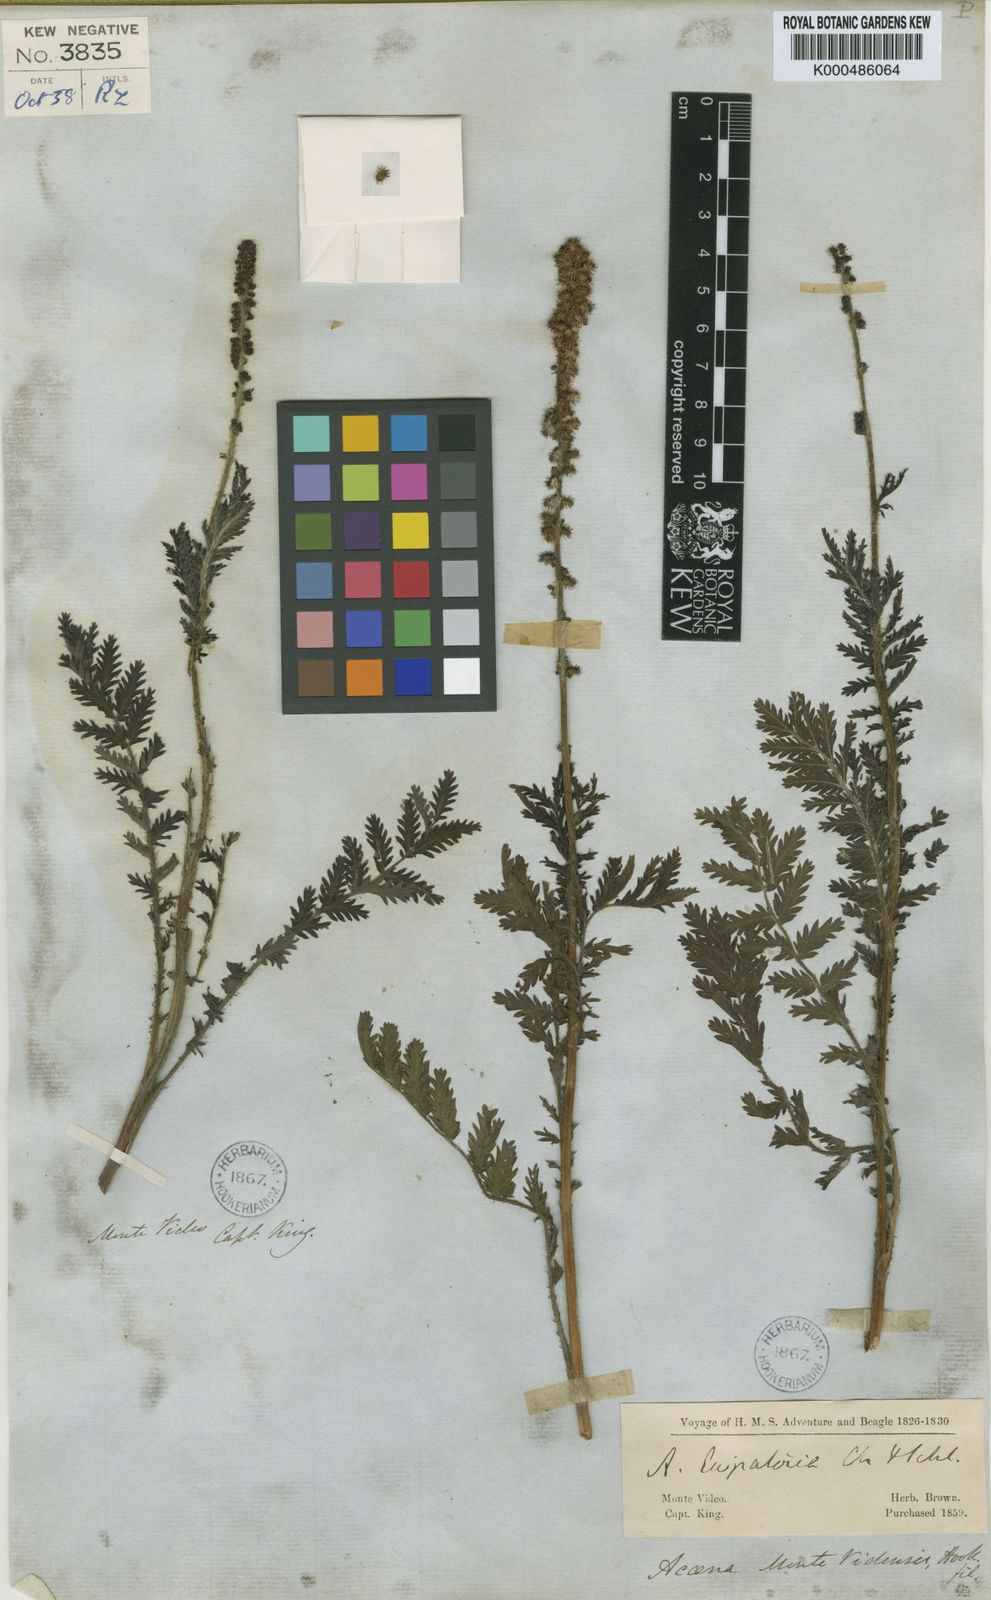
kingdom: Plantae
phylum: Tracheophyta
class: Magnoliopsida
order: Rosales
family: Rosaceae
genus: Acaena
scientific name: Acaena eupatoria
